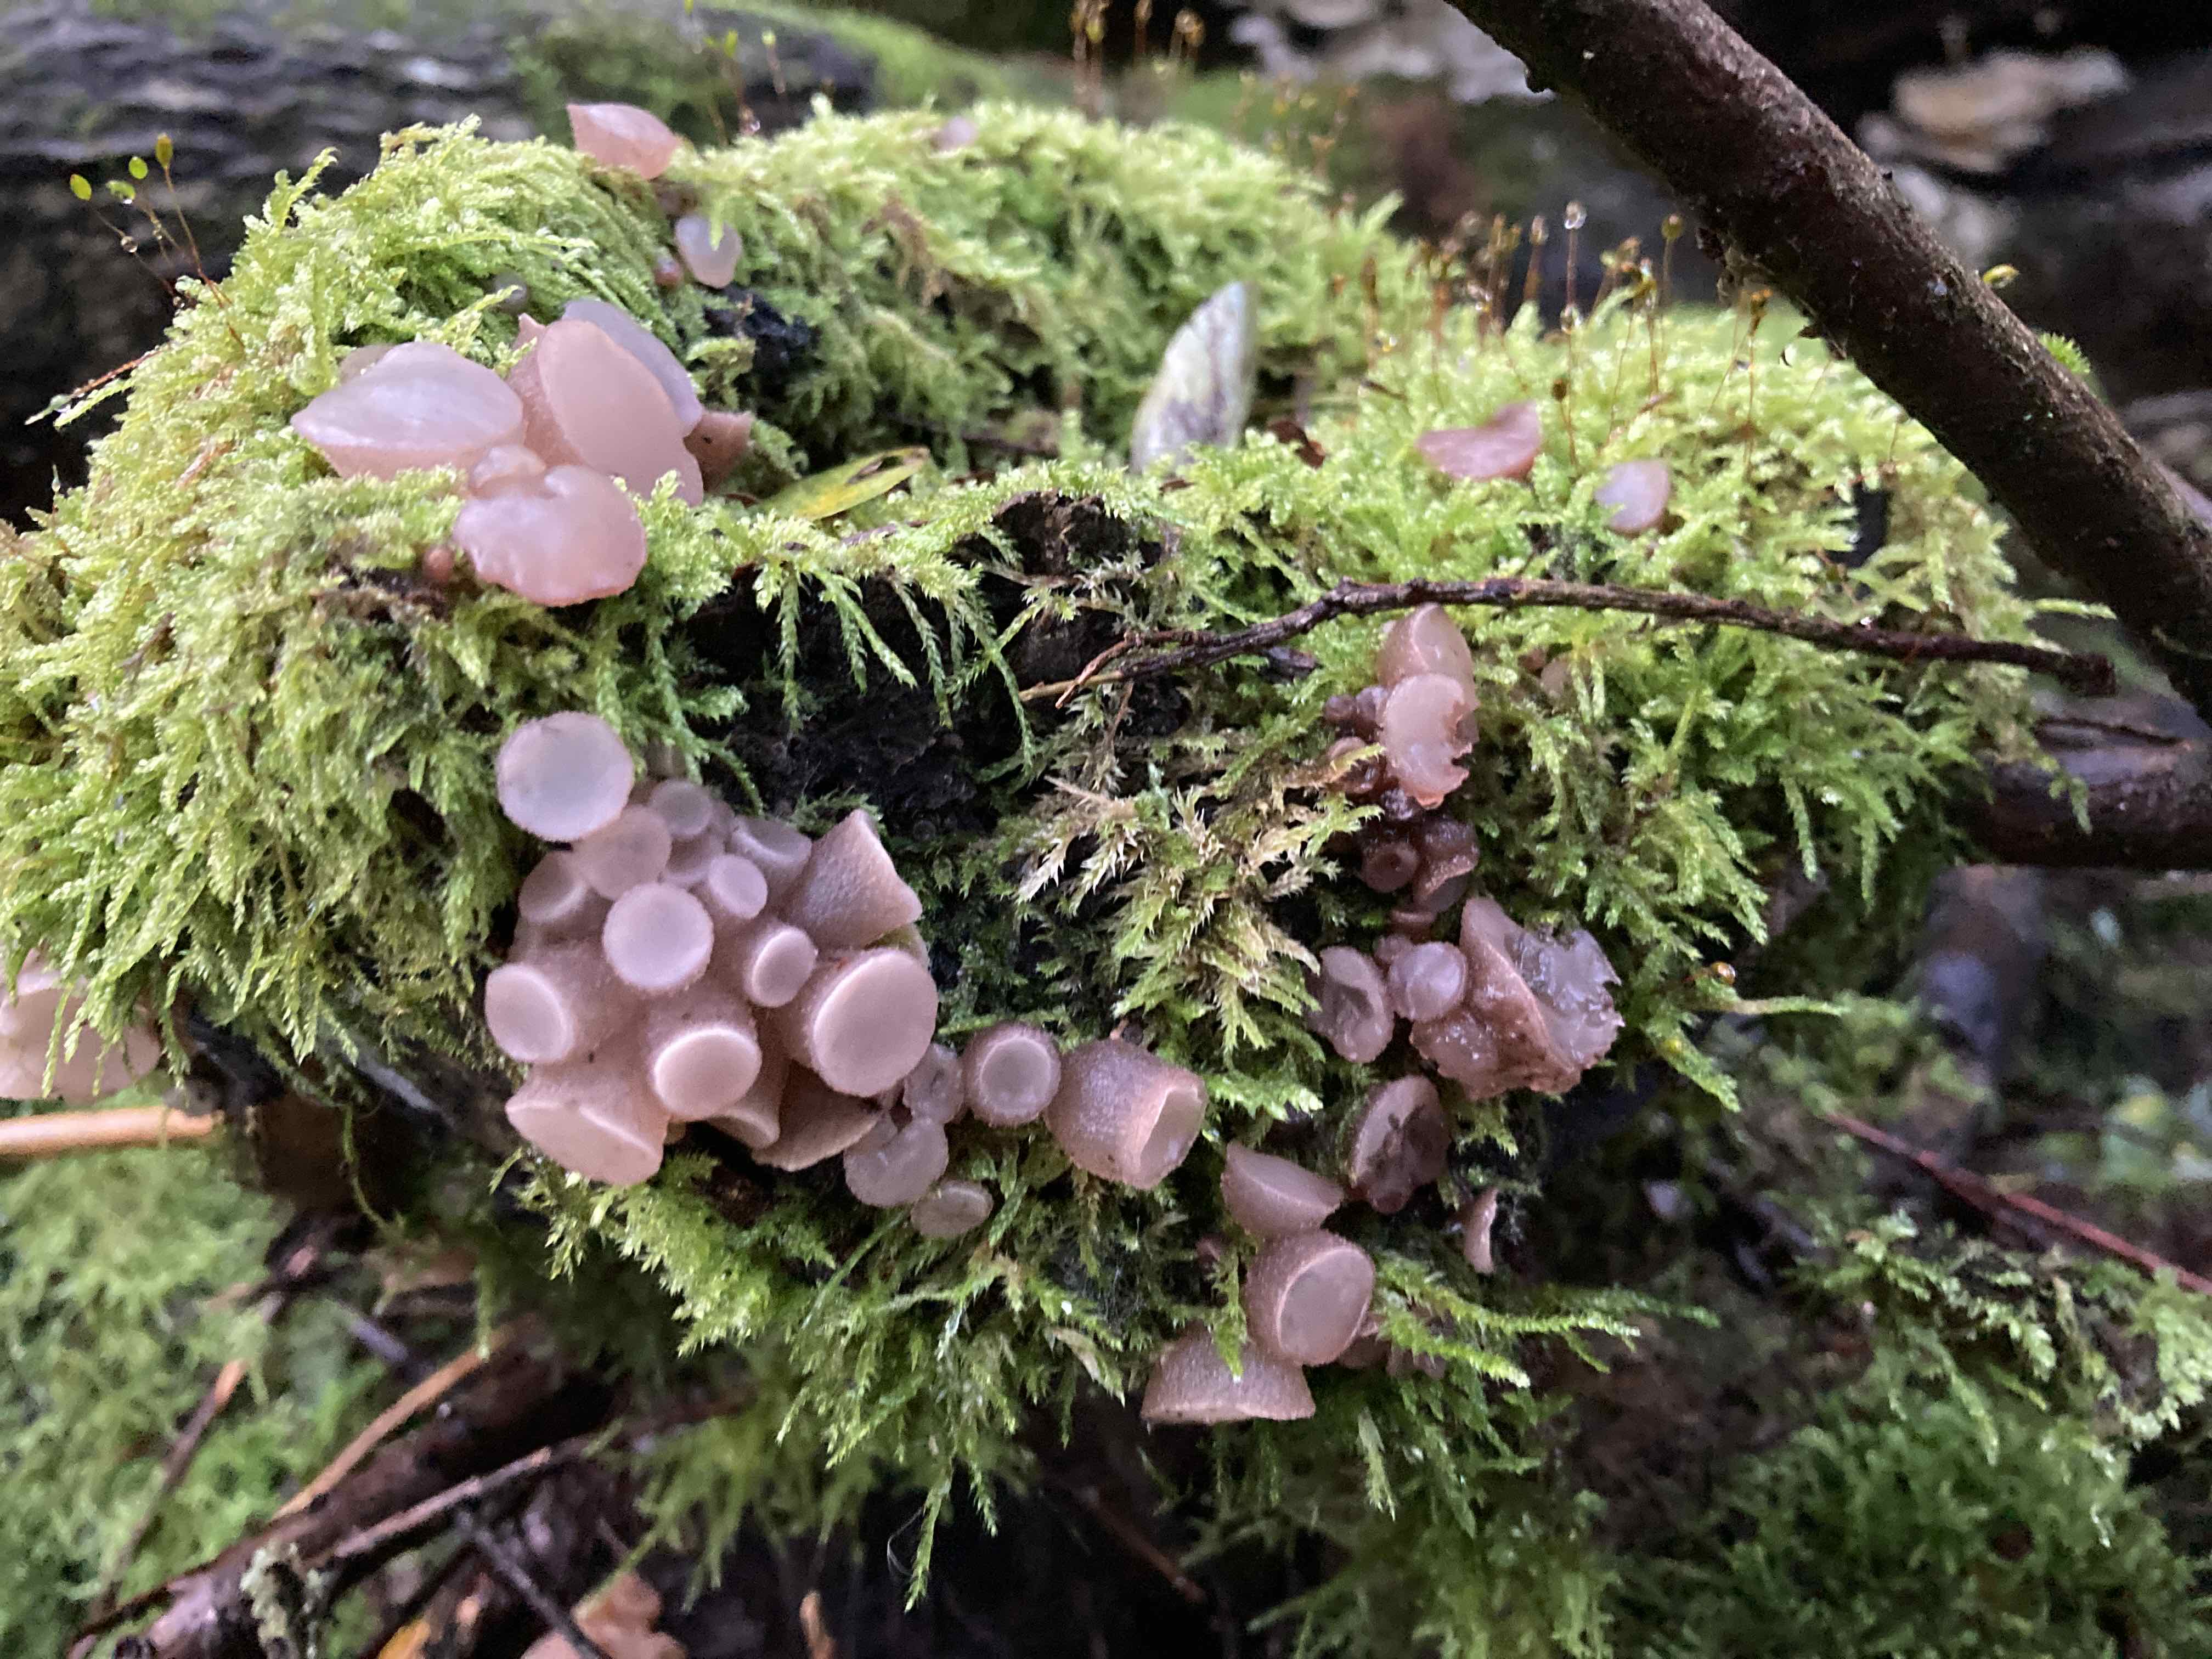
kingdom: Fungi
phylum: Ascomycota
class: Leotiomycetes
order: Helotiales
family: Gelatinodiscaceae
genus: Neobulgaria
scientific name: Neobulgaria pura
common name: bleg bævreskive
